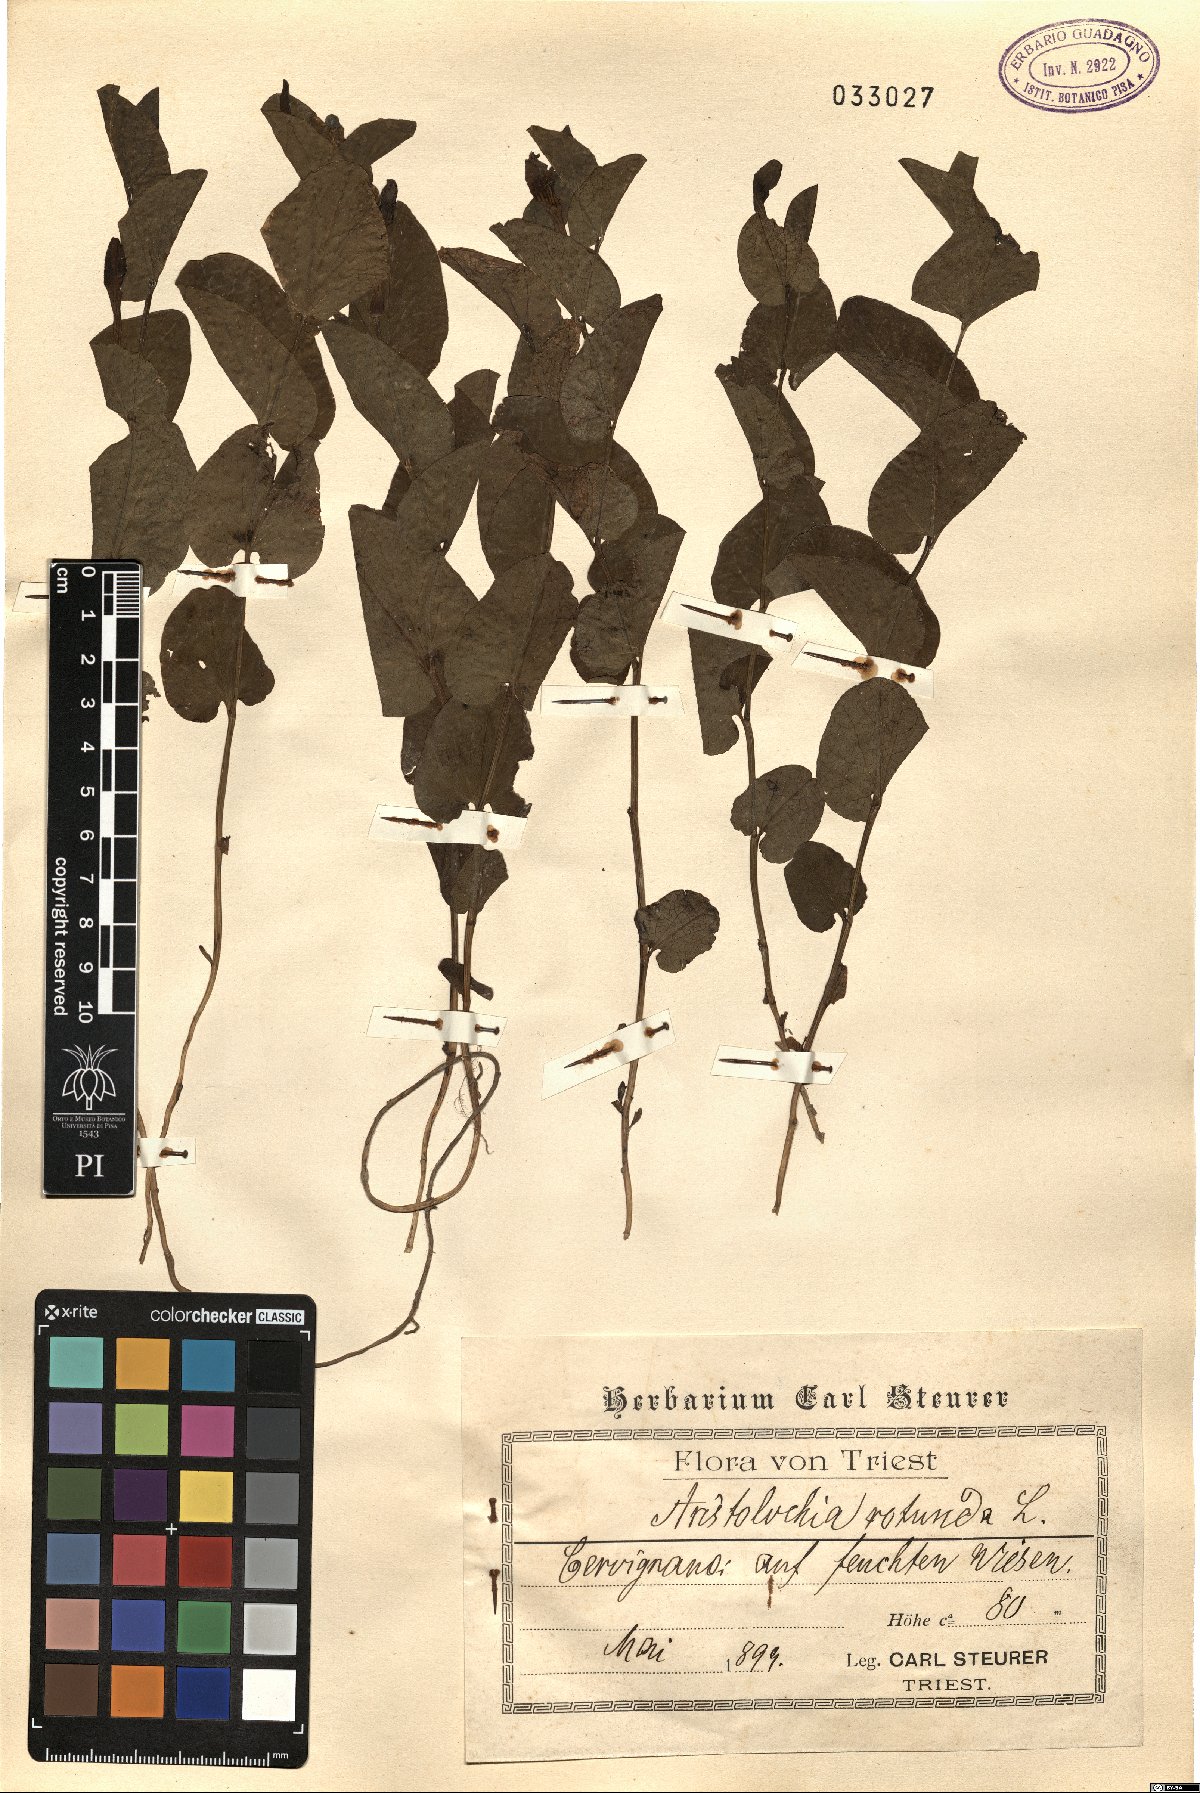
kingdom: Plantae
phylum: Tracheophyta
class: Magnoliopsida
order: Piperales
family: Aristolochiaceae
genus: Aristolochia
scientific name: Aristolochia rotunda
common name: Smearwort
